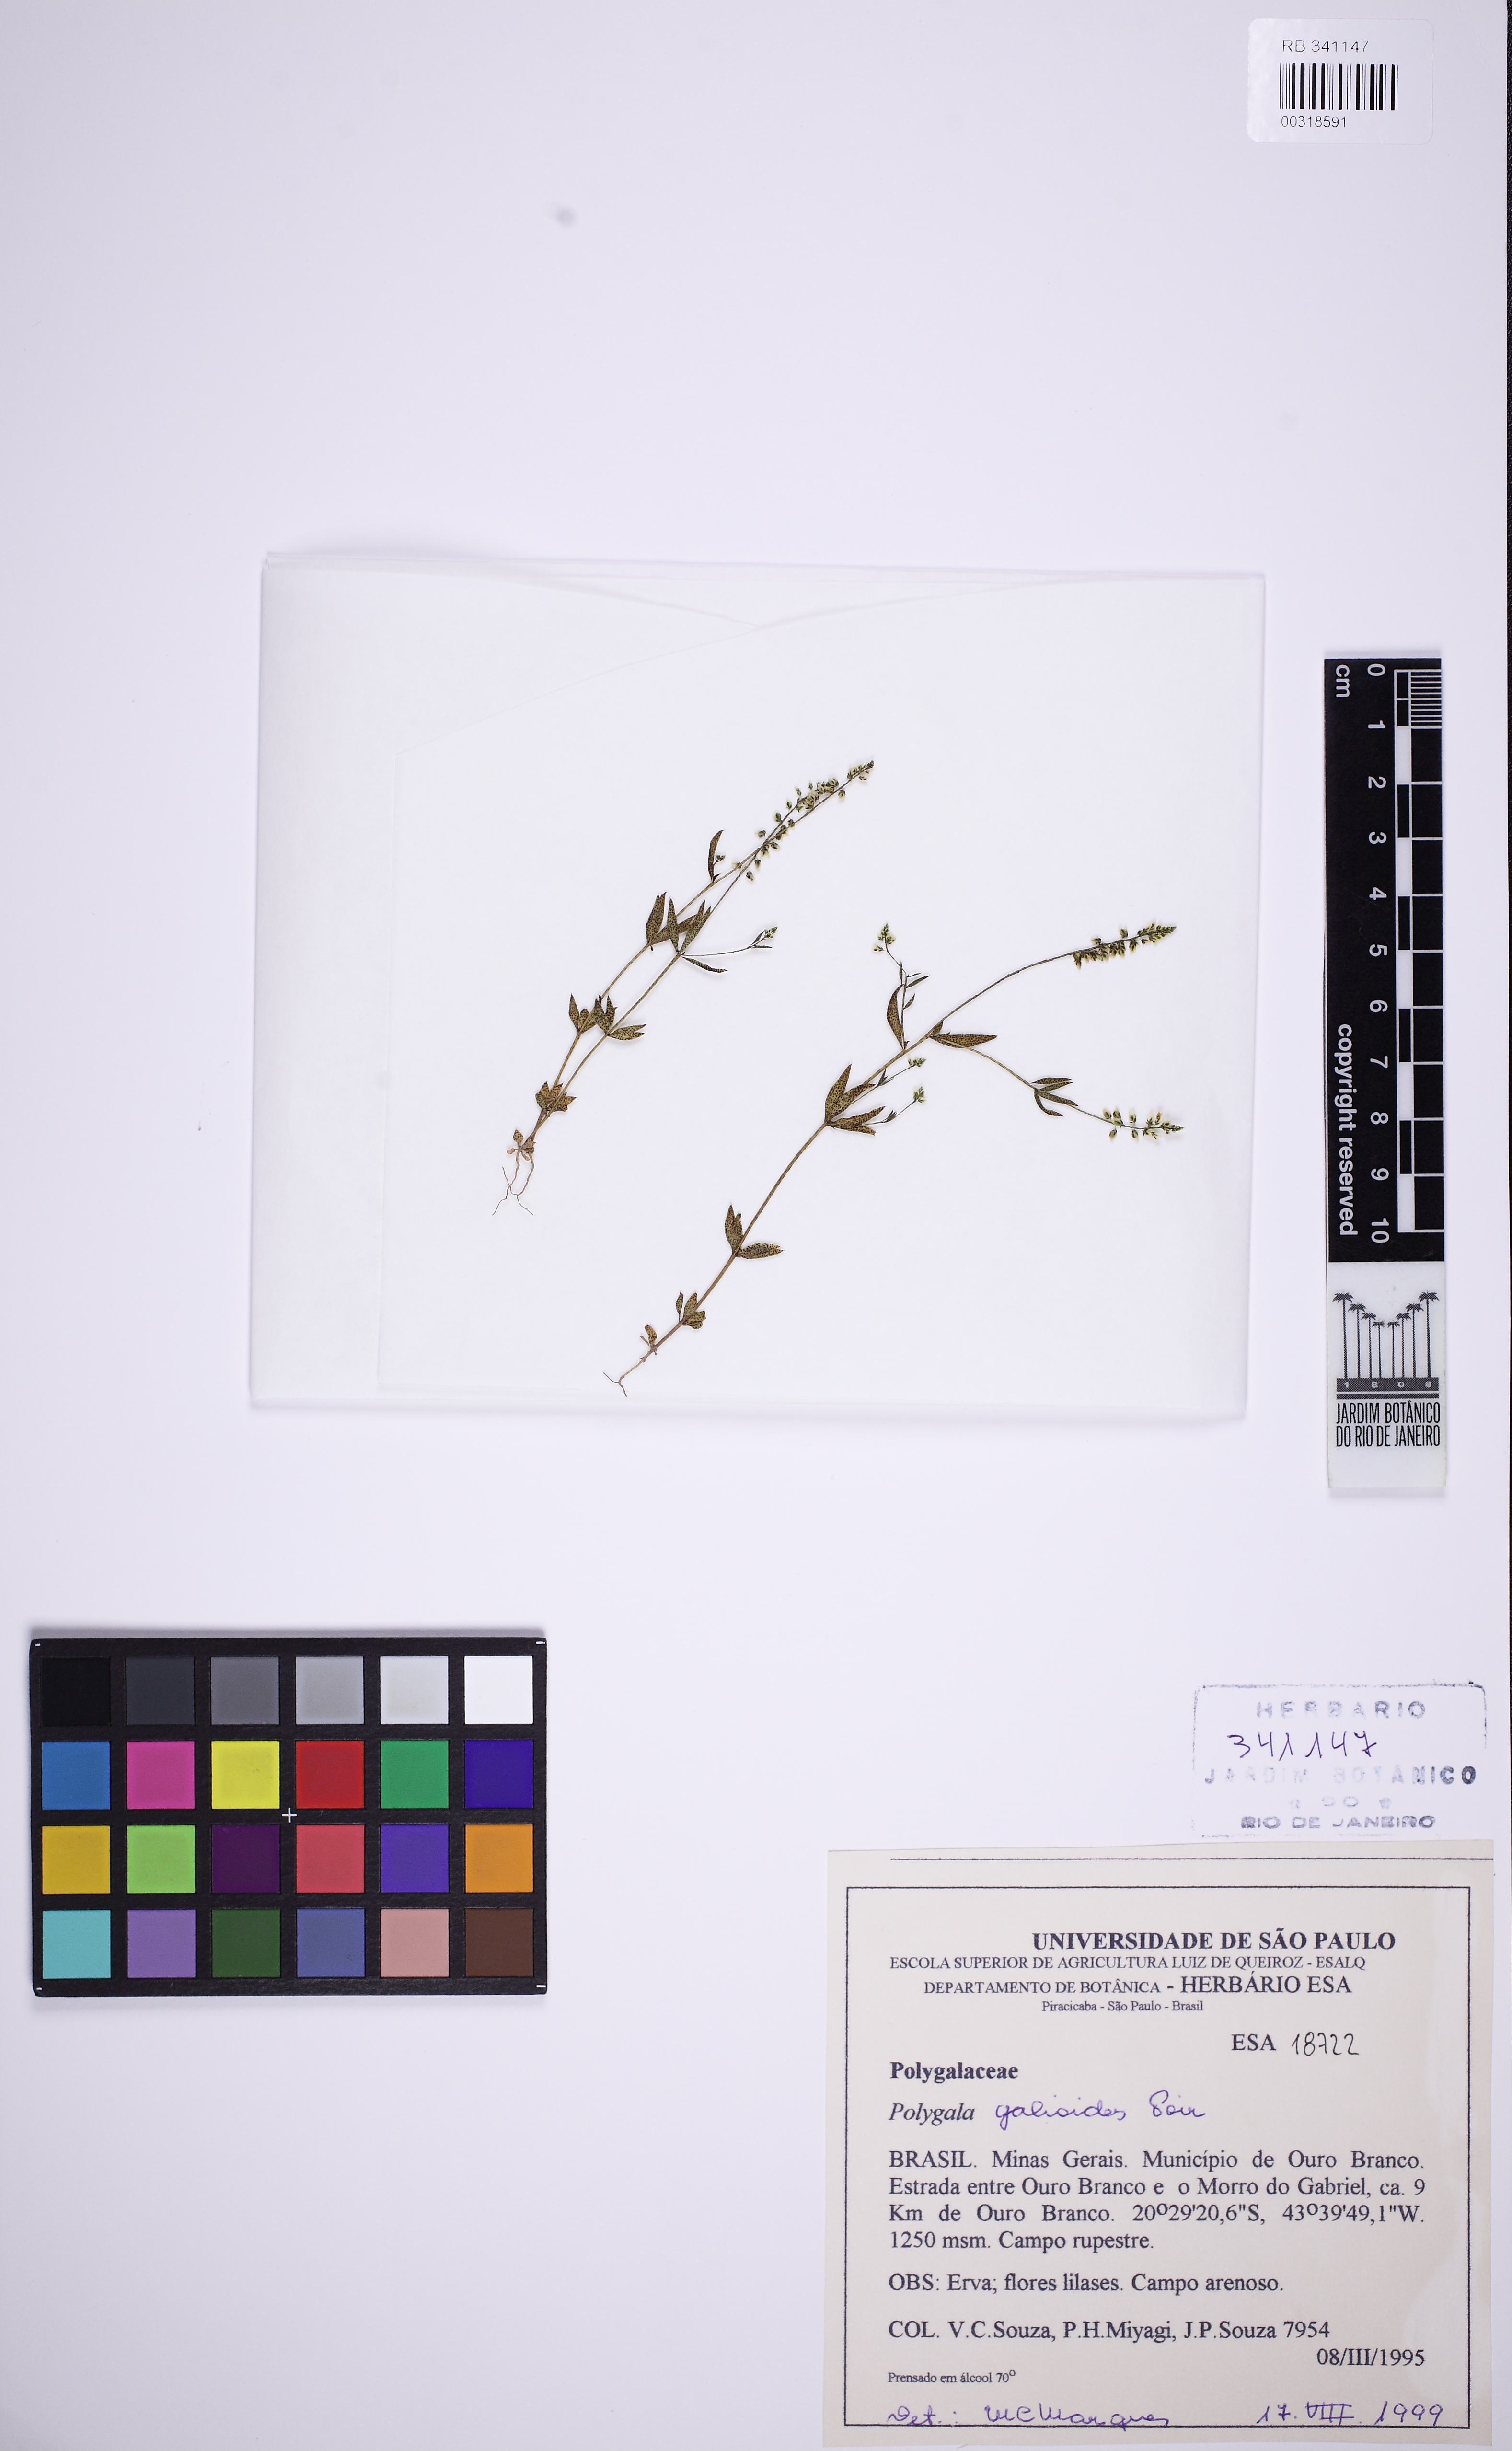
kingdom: Plantae
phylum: Tracheophyta
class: Magnoliopsida
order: Fabales
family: Polygalaceae
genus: Polygala
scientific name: Polygala galioides
